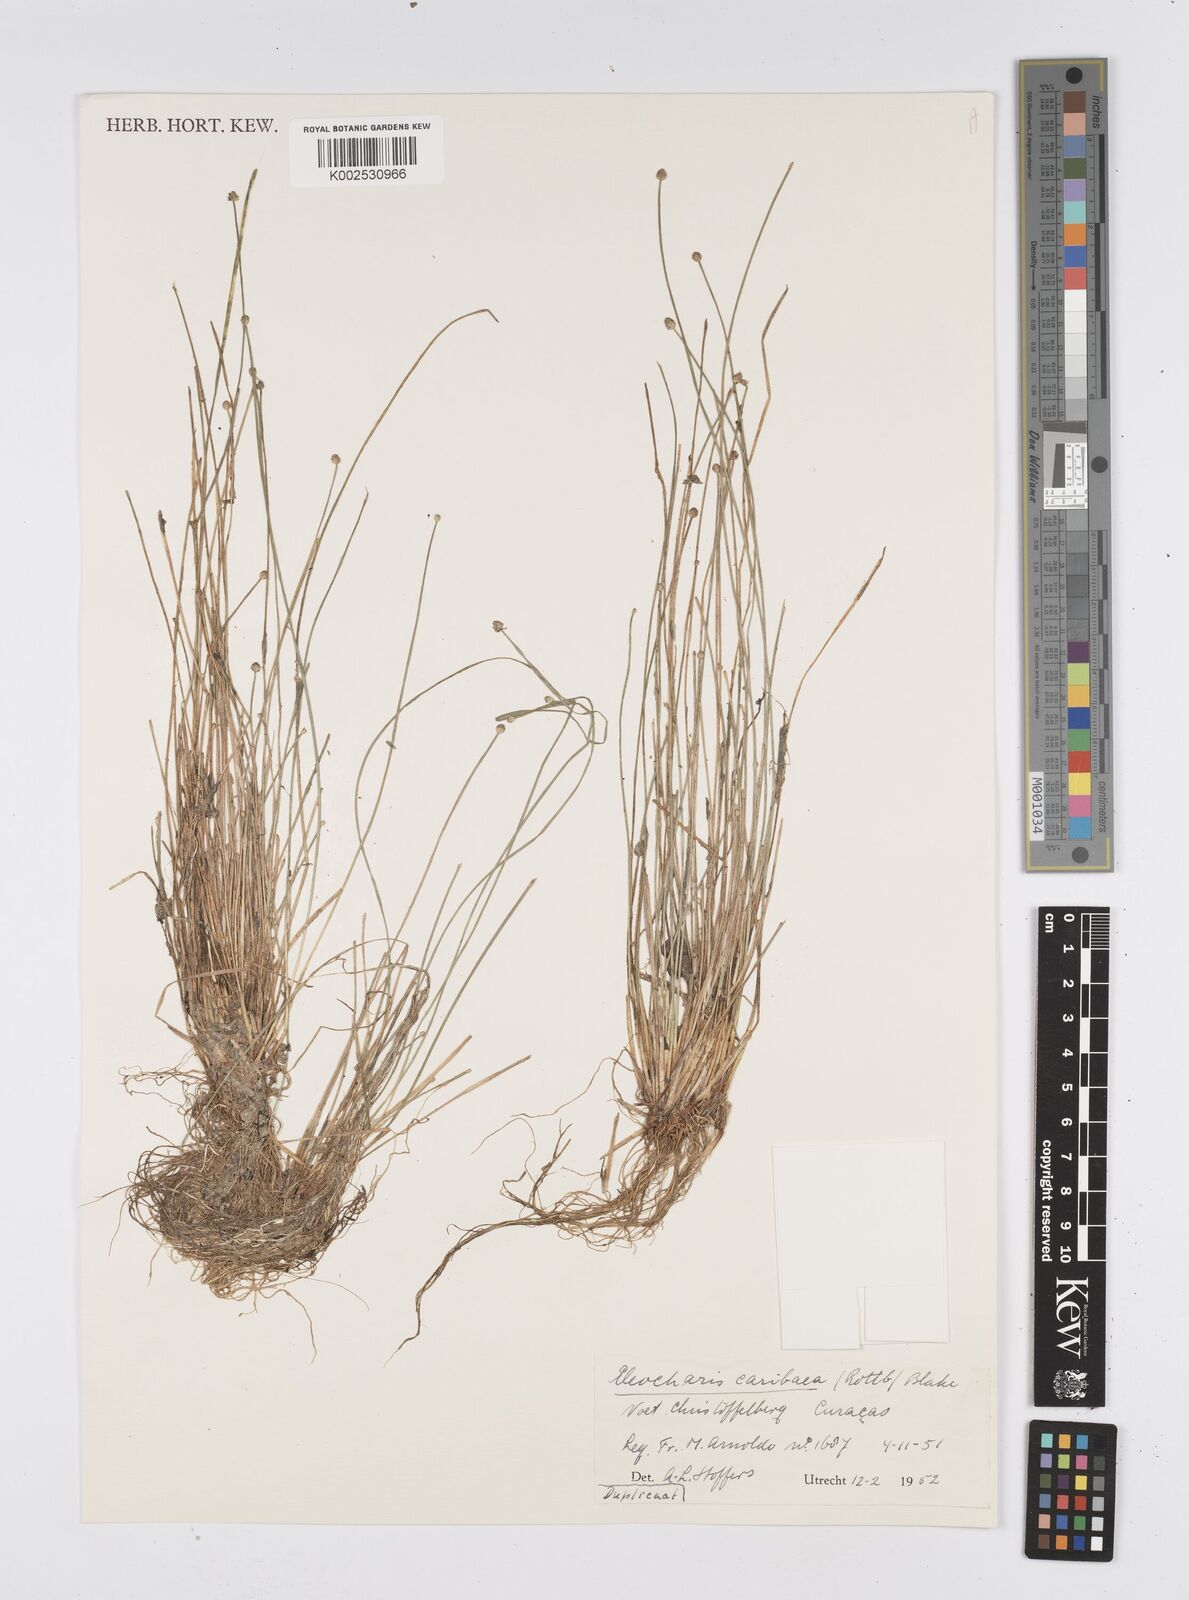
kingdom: Plantae
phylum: Tracheophyta
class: Liliopsida
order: Poales
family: Cyperaceae
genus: Eleocharis
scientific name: Eleocharis geniculata
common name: Canada spikesedge
